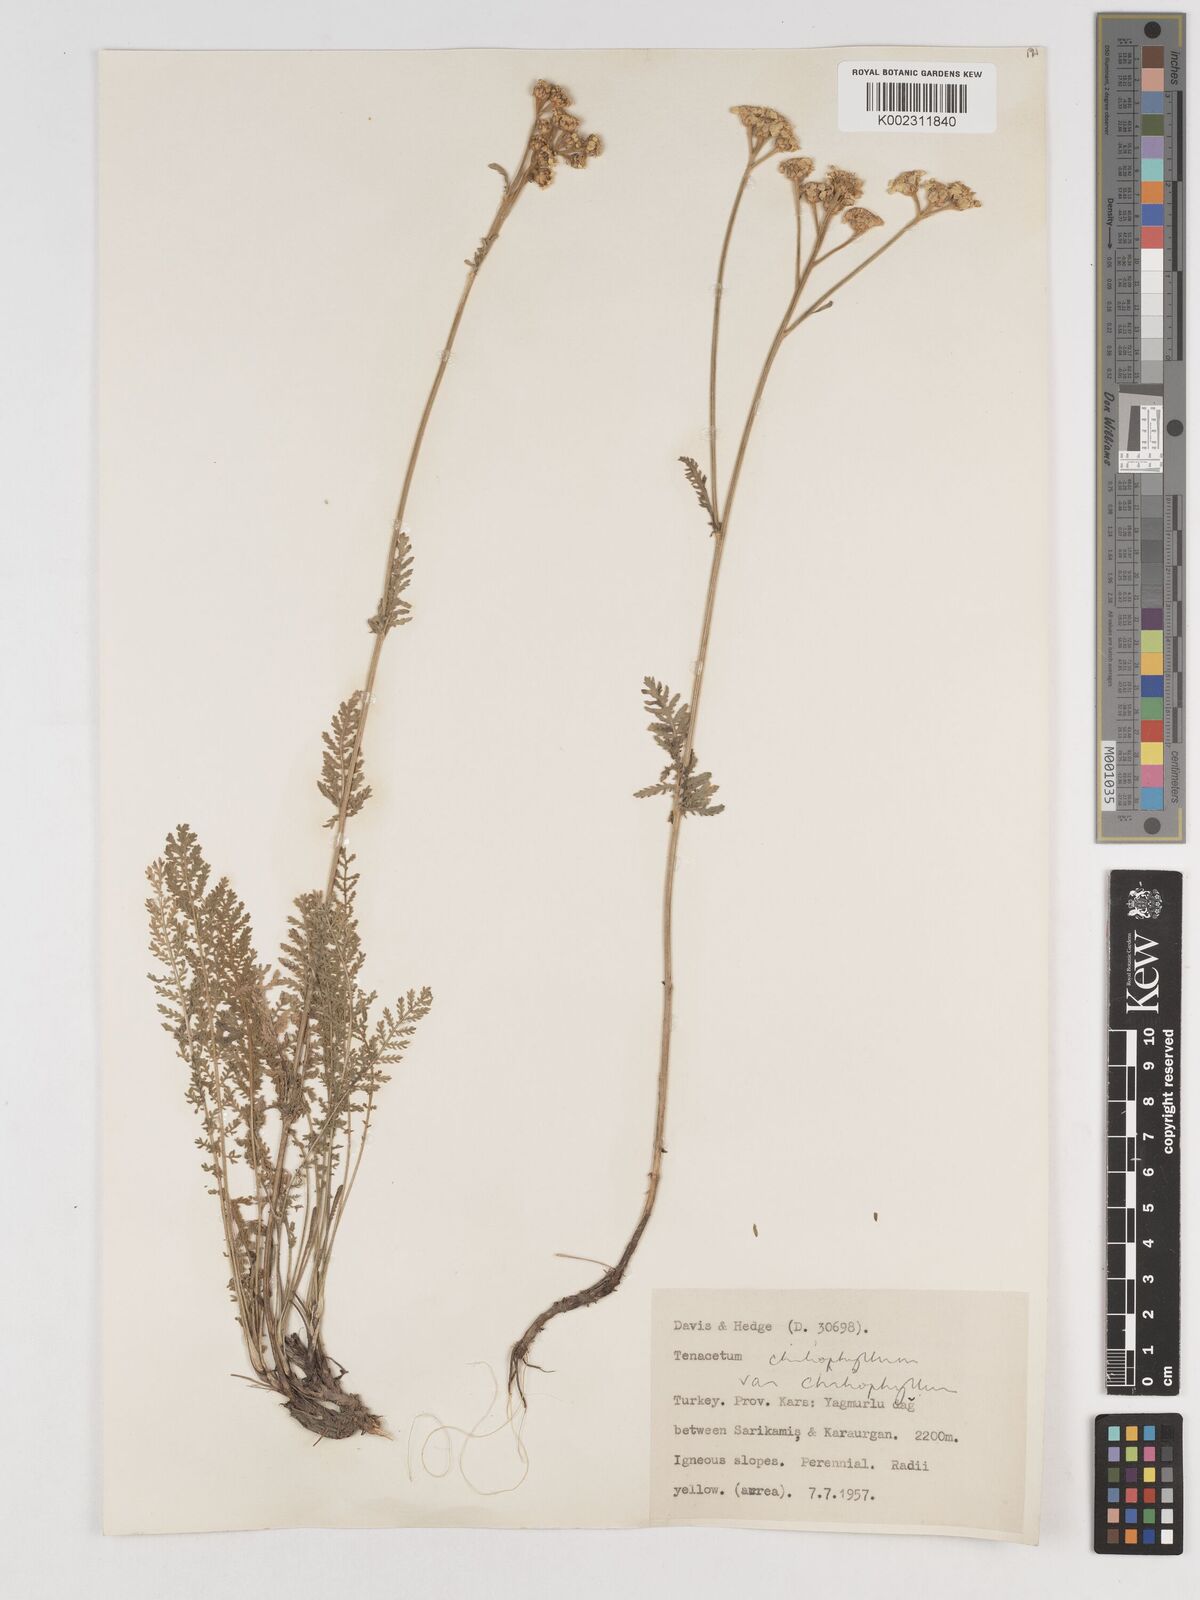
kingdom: Plantae
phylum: Tracheophyta
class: Magnoliopsida
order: Asterales
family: Asteraceae
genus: Tanacetum
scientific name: Tanacetum aureum
